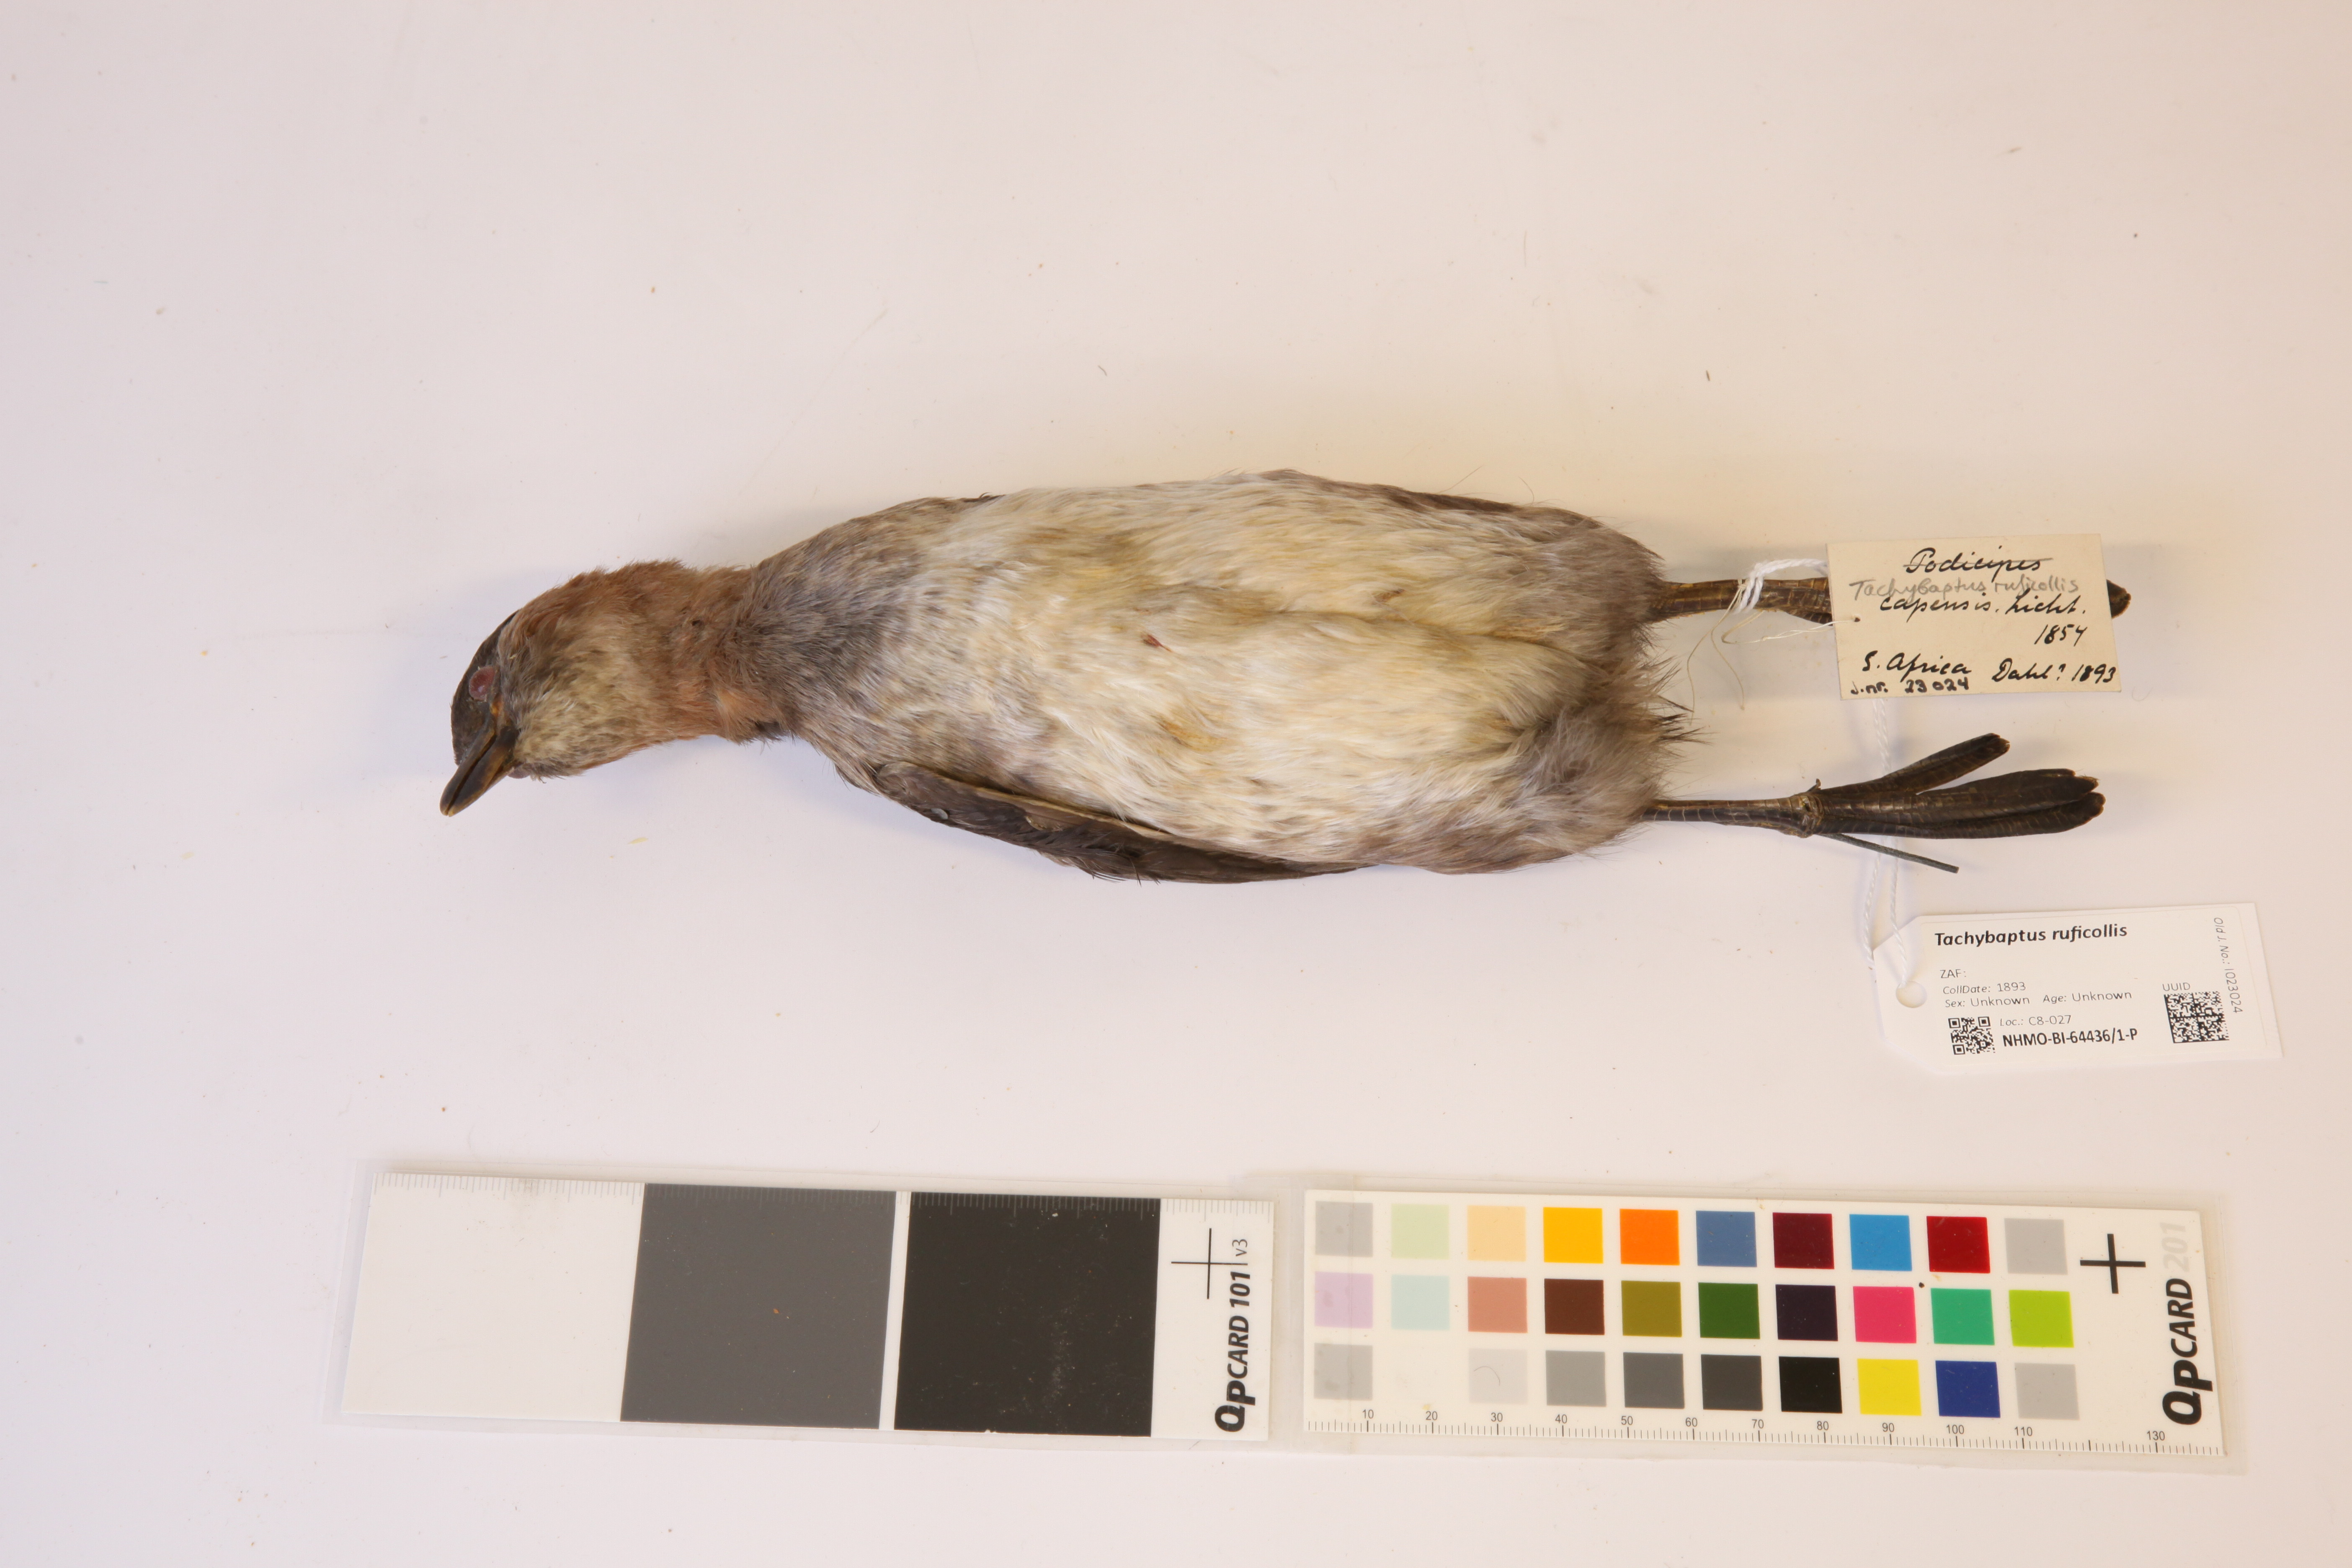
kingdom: Animalia
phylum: Chordata
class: Aves
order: Podicipediformes
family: Podicipedidae
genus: Tachybaptus
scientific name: Tachybaptus ruficollis
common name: Little grebe
